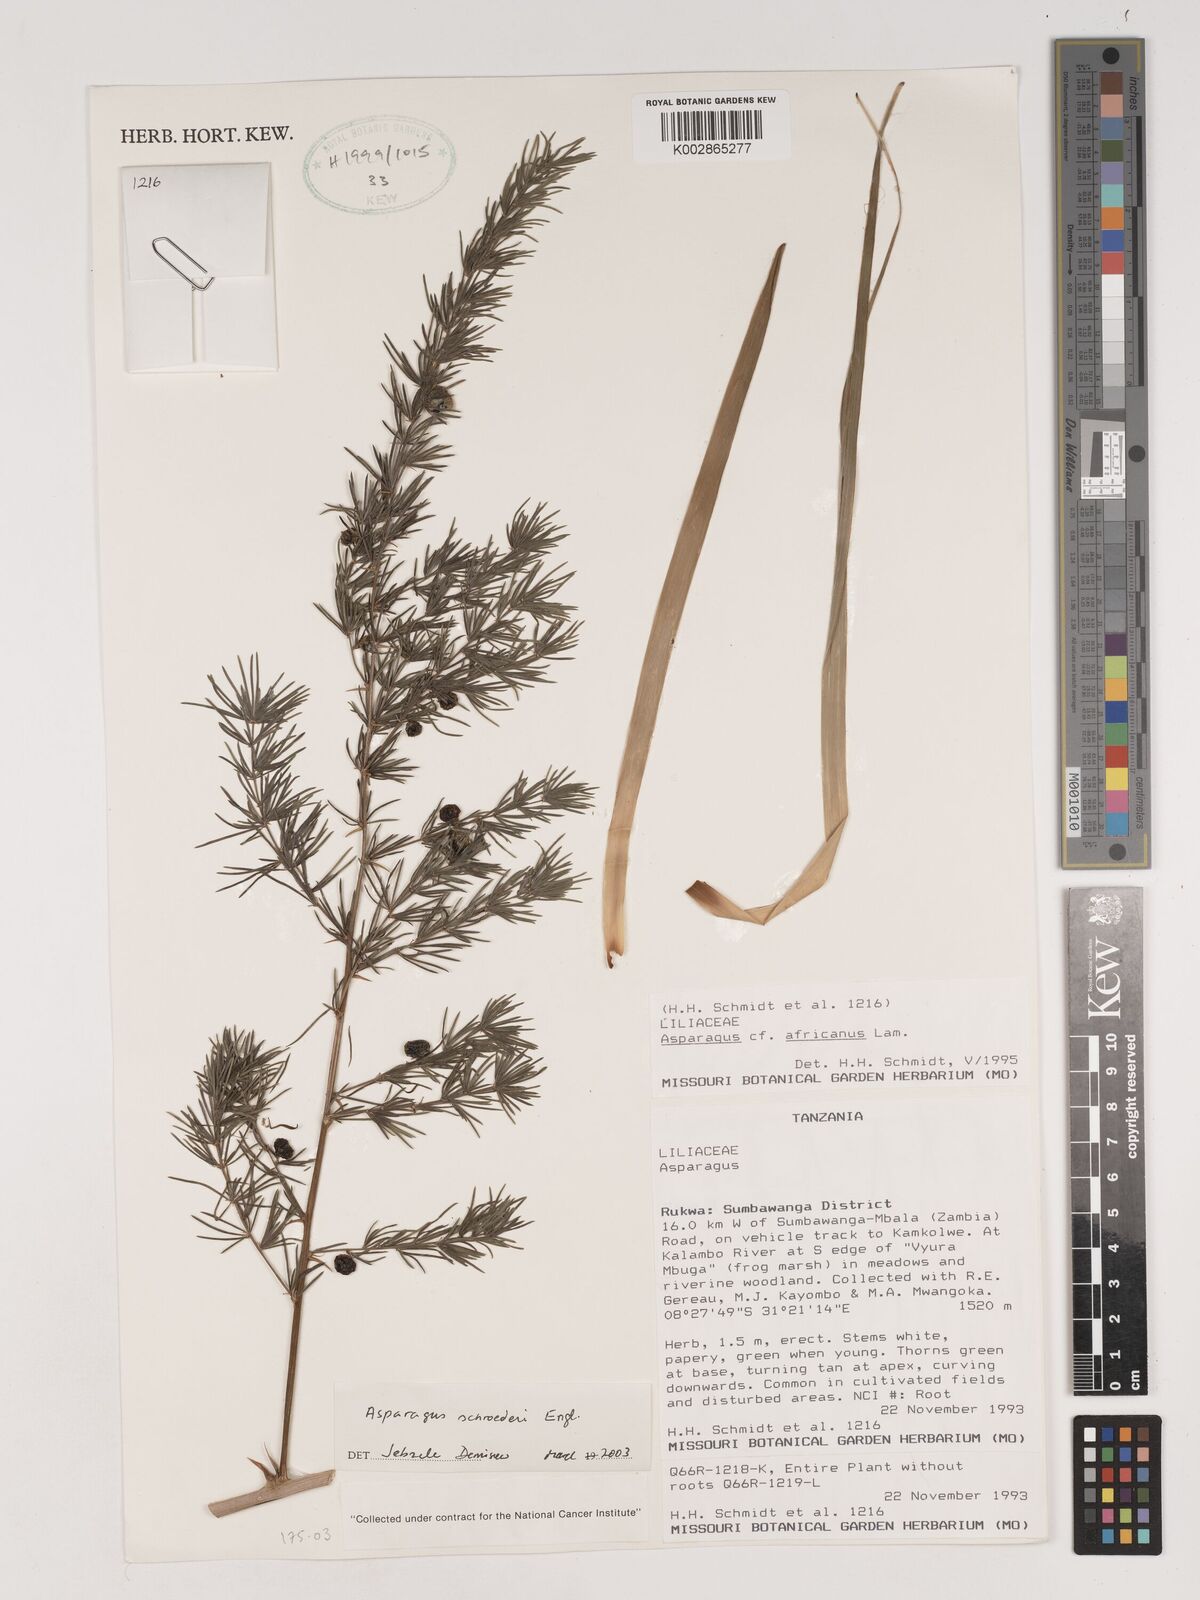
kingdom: Plantae
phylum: Tracheophyta
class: Liliopsida
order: Asparagales
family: Asparagaceae
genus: Asparagus
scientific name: Asparagus schroederi
